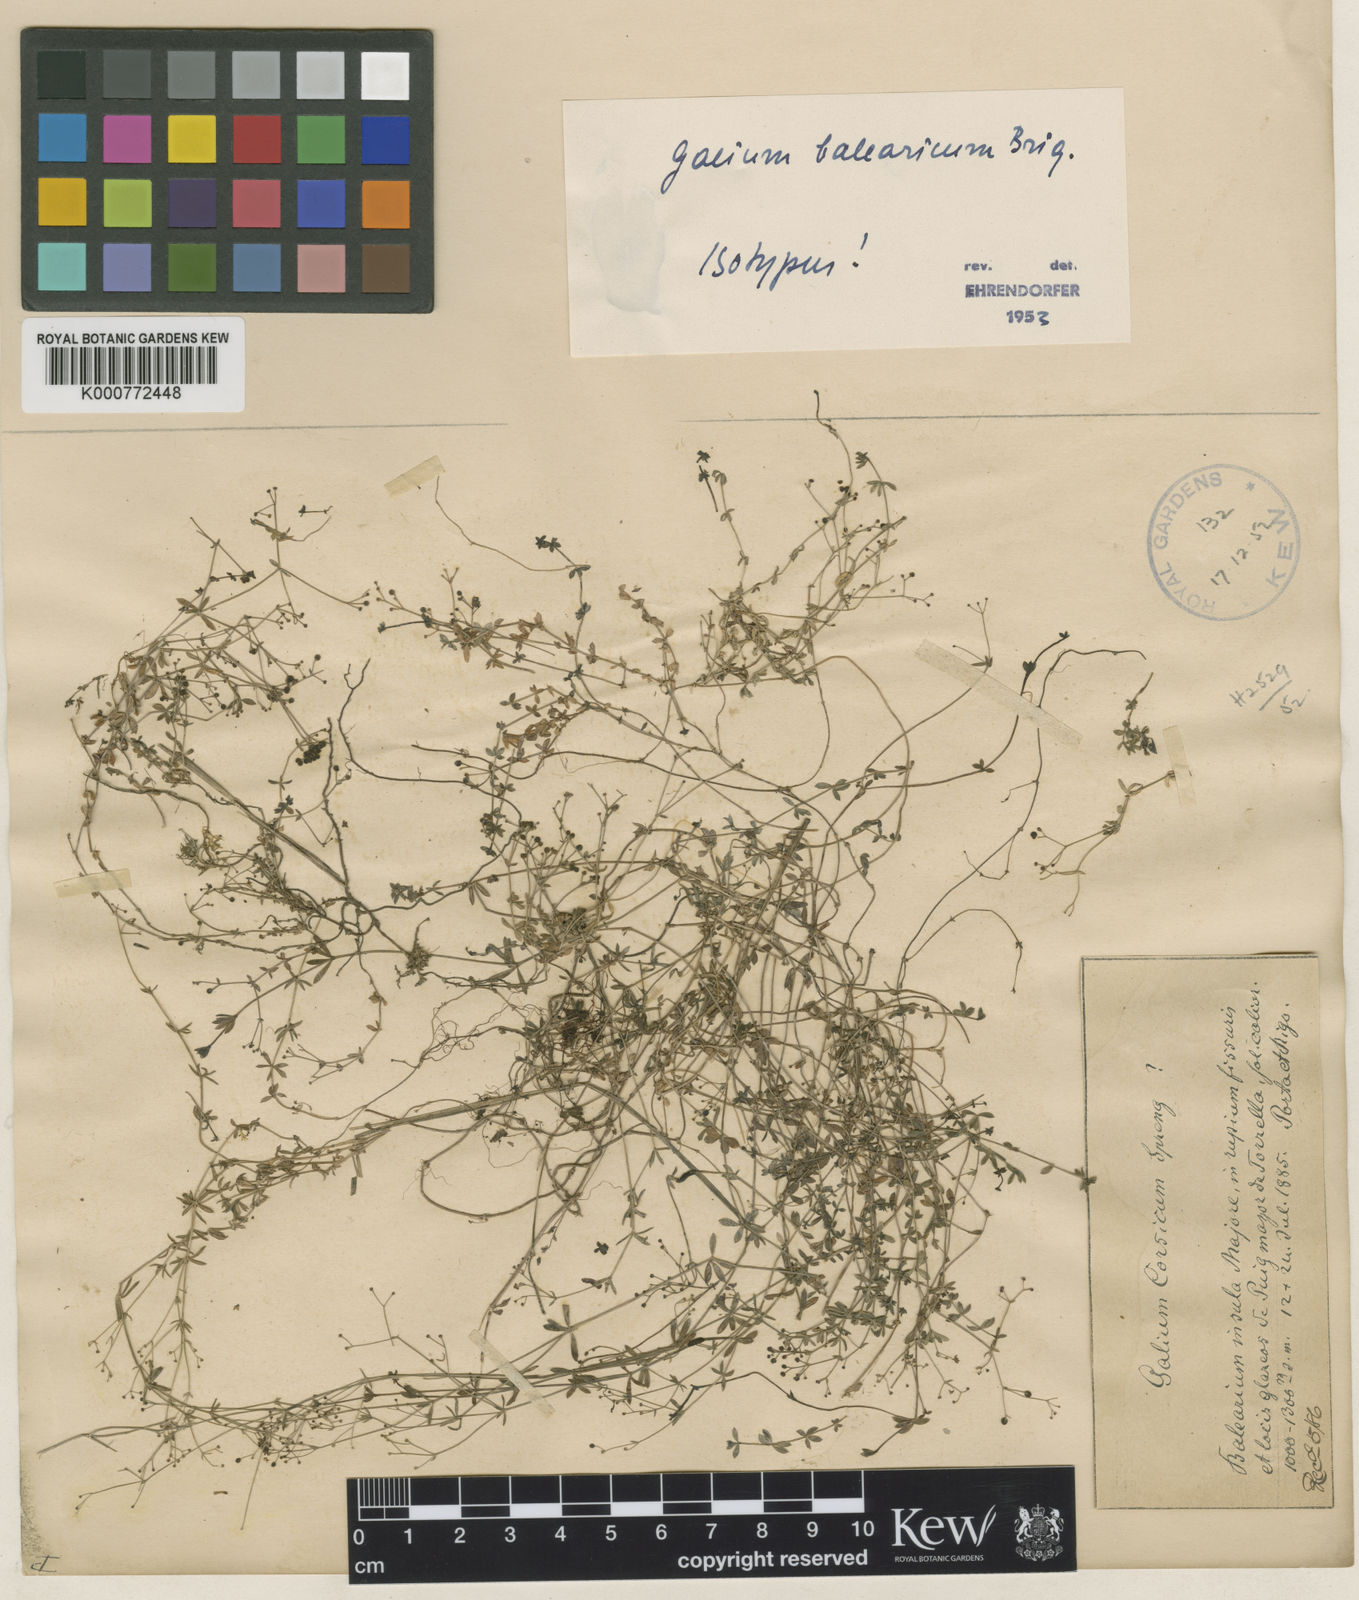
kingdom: Plantae
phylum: Tracheophyta
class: Magnoliopsida
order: Gentianales
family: Rubiaceae
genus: Galium
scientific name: Galium balearicum
